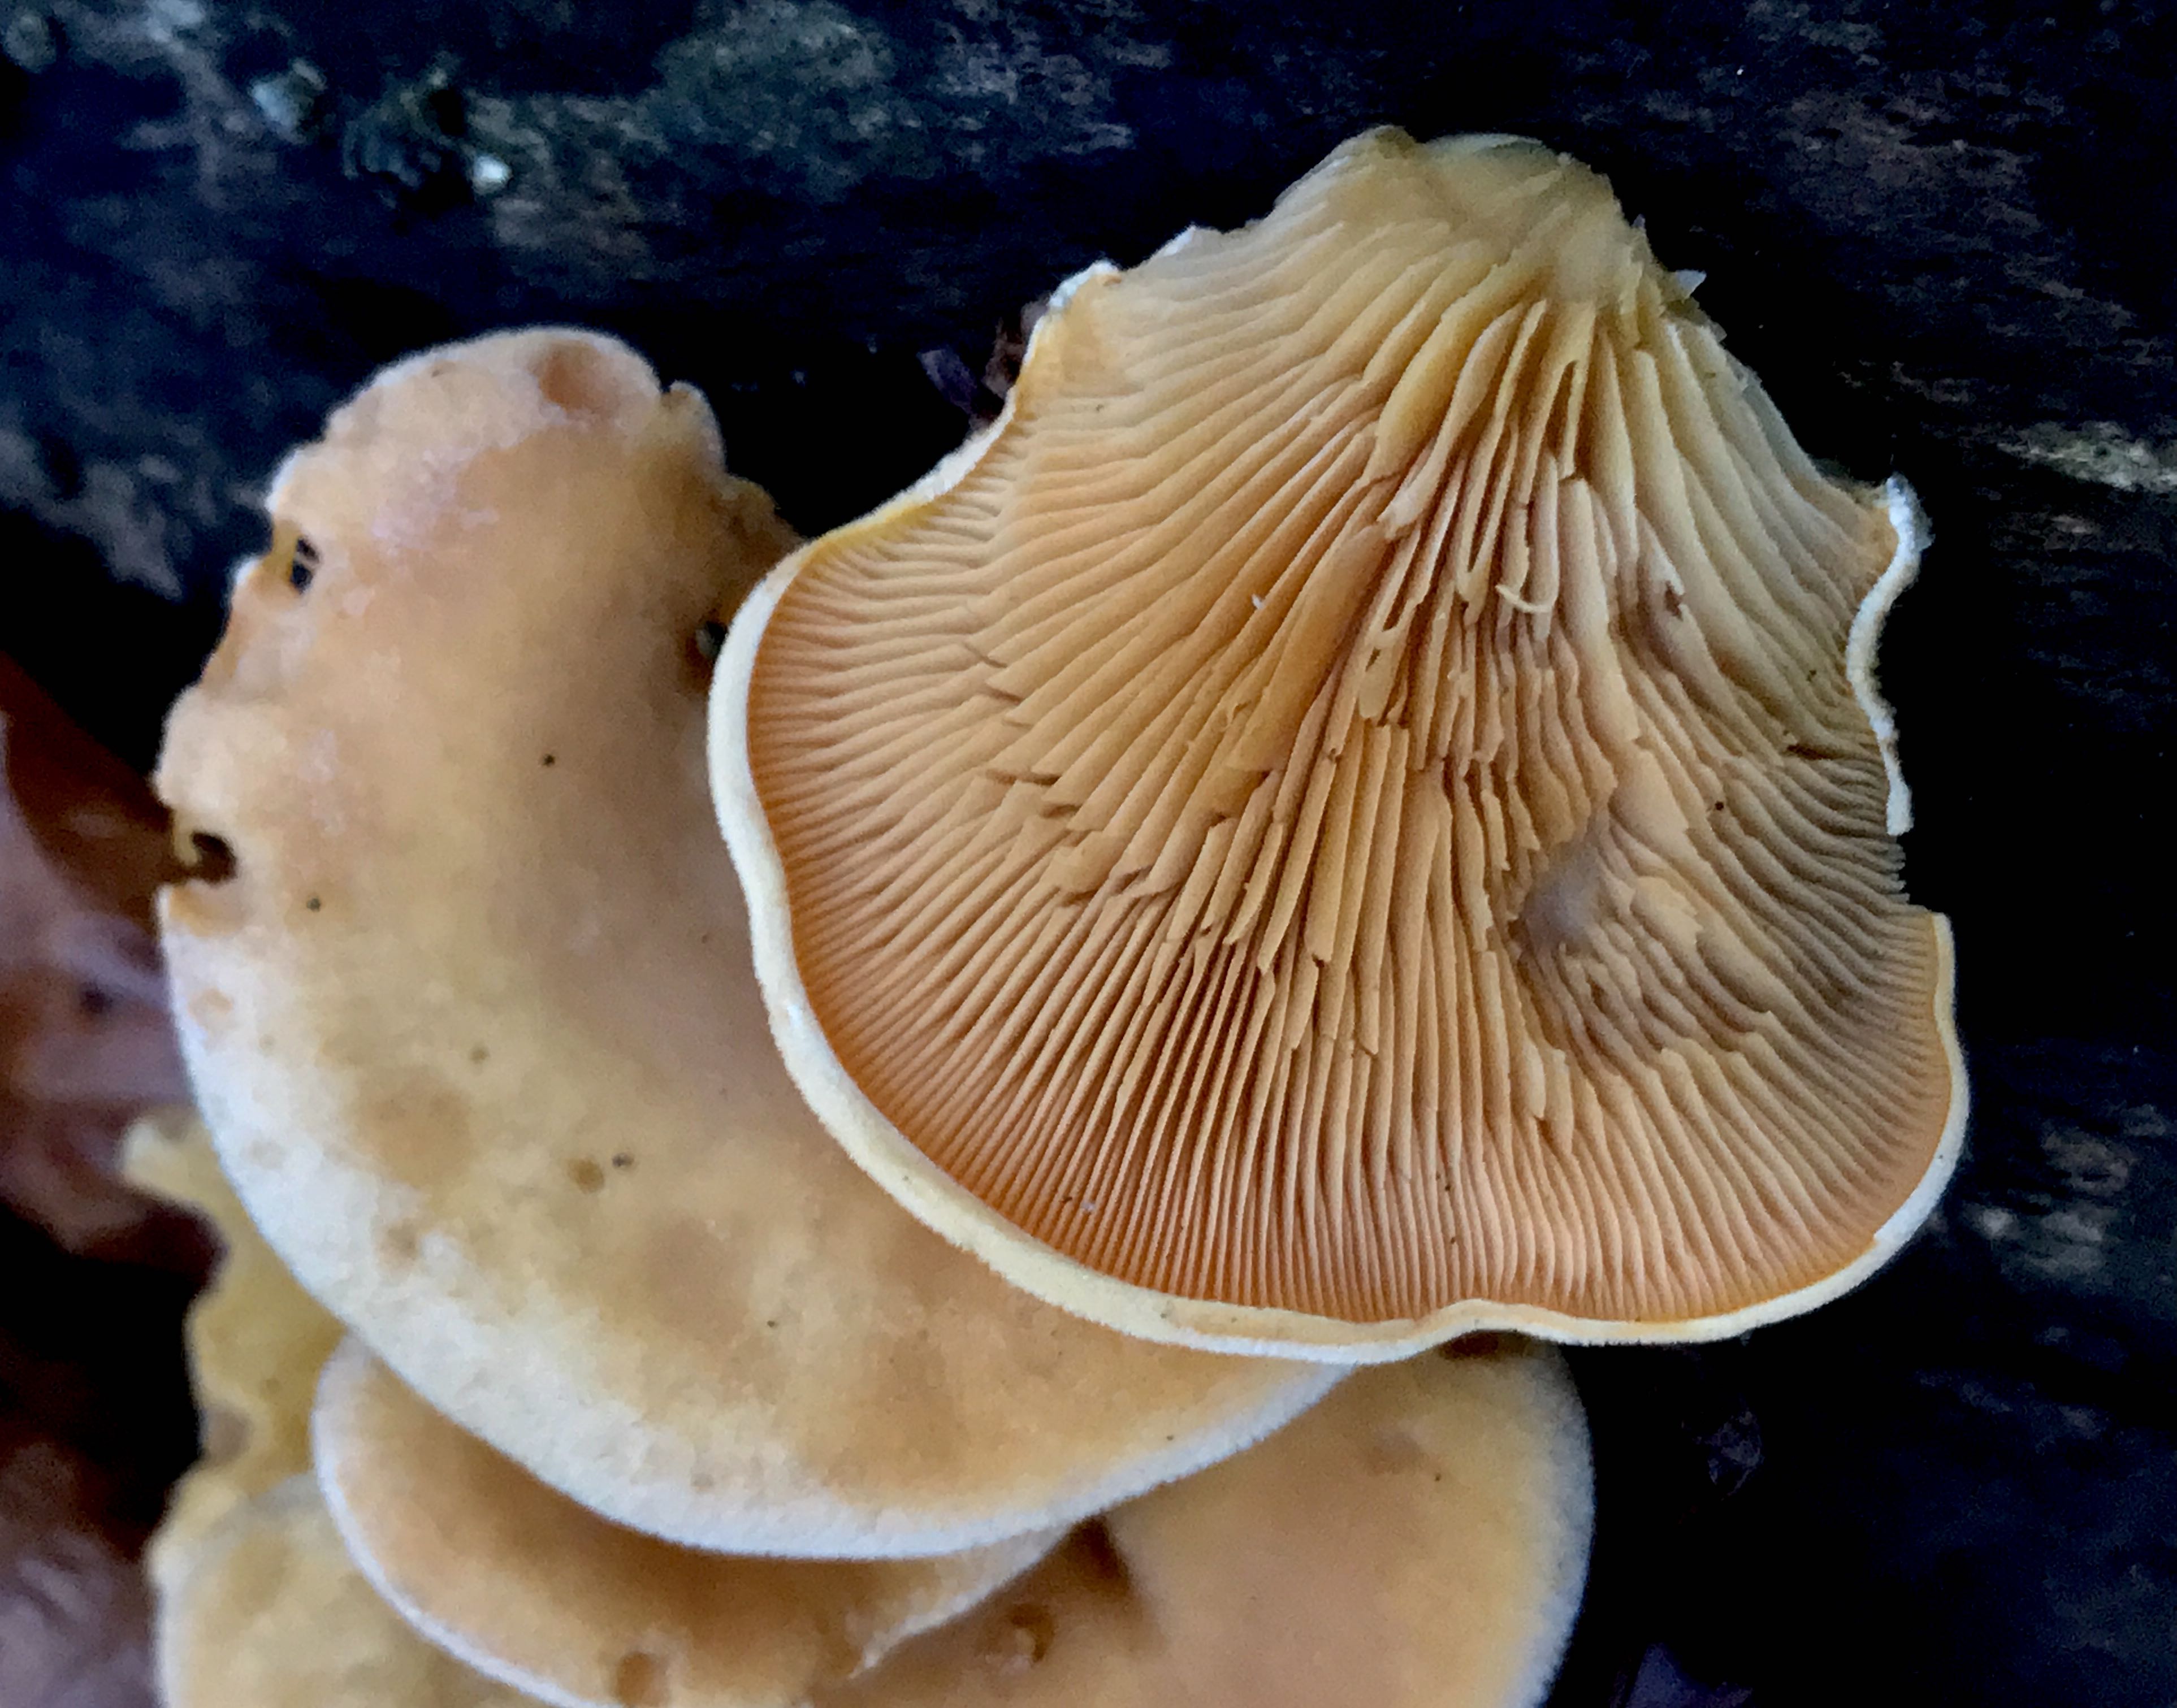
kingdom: Fungi
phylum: Basidiomycota
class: Agaricomycetes
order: Agaricales
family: Phyllotopsidaceae
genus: Phyllotopsis
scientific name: Phyllotopsis nidulans
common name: okkerblad
